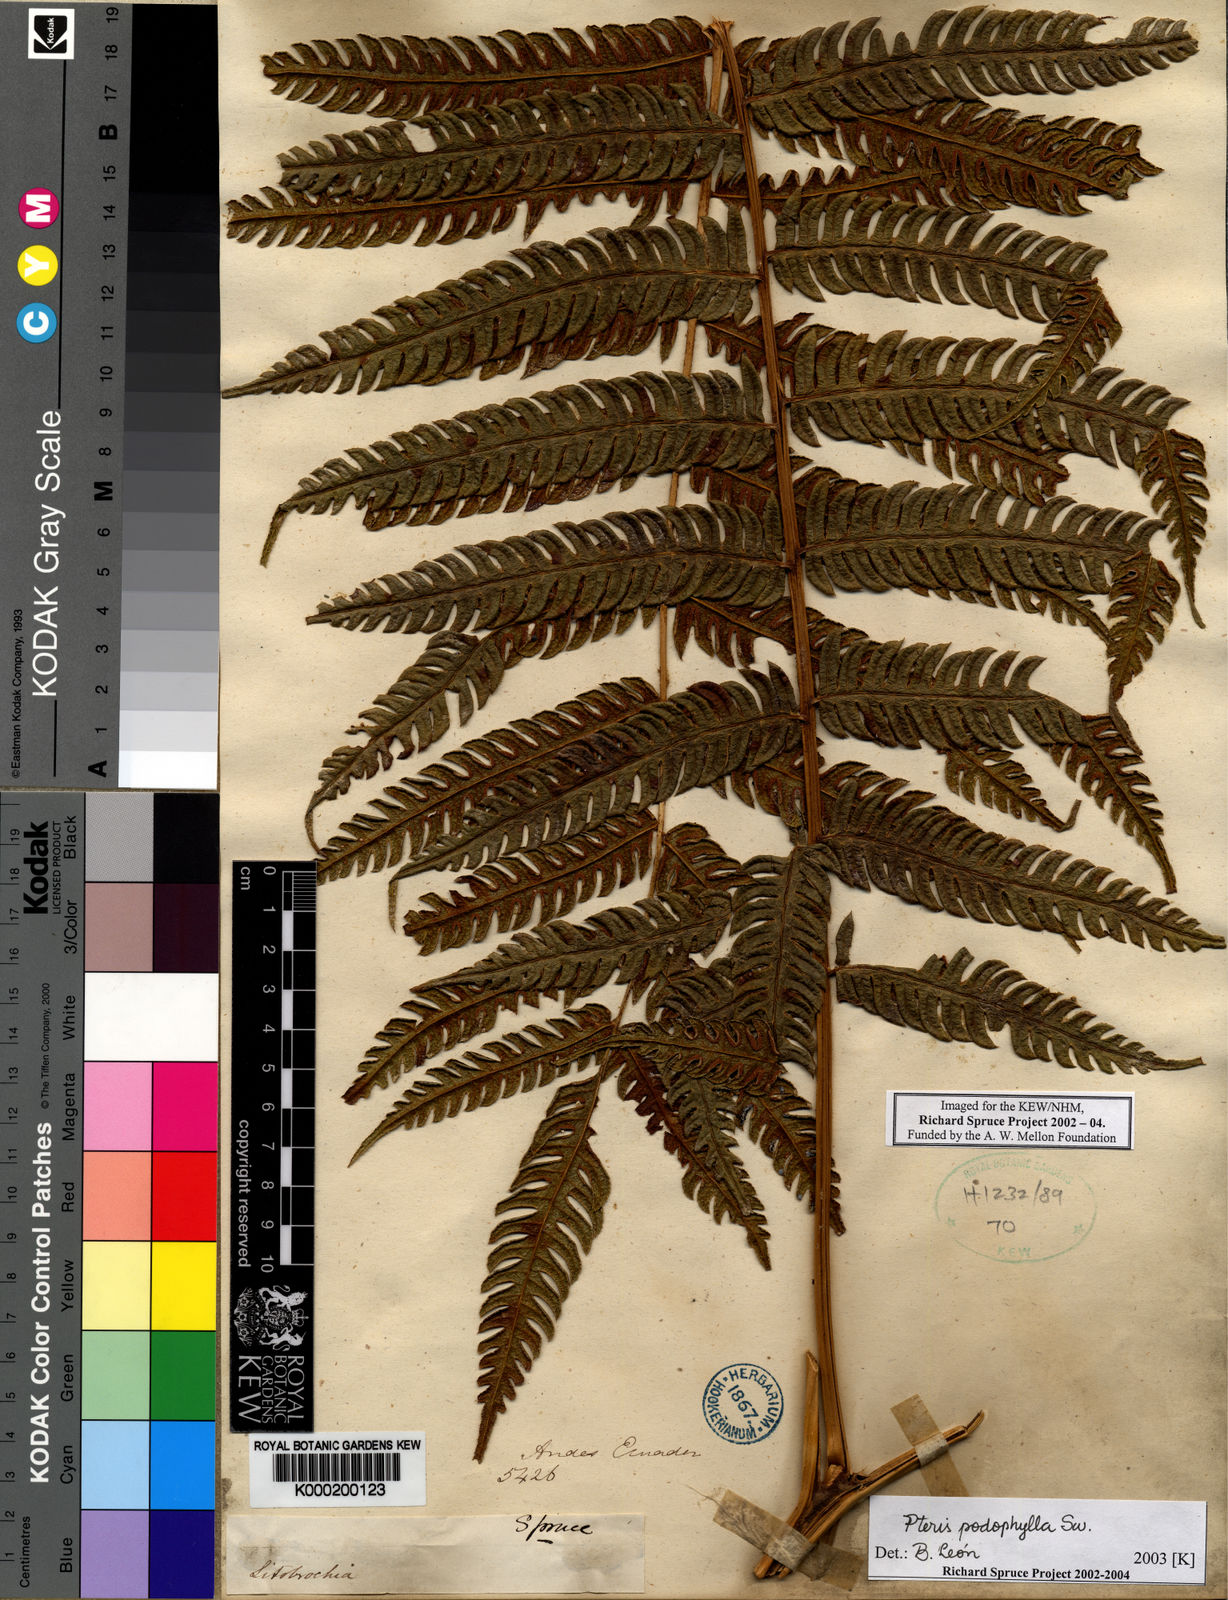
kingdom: Plantae
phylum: Tracheophyta
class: Polypodiopsida
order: Polypodiales
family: Pteridaceae
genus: Pteris
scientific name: Pteris
